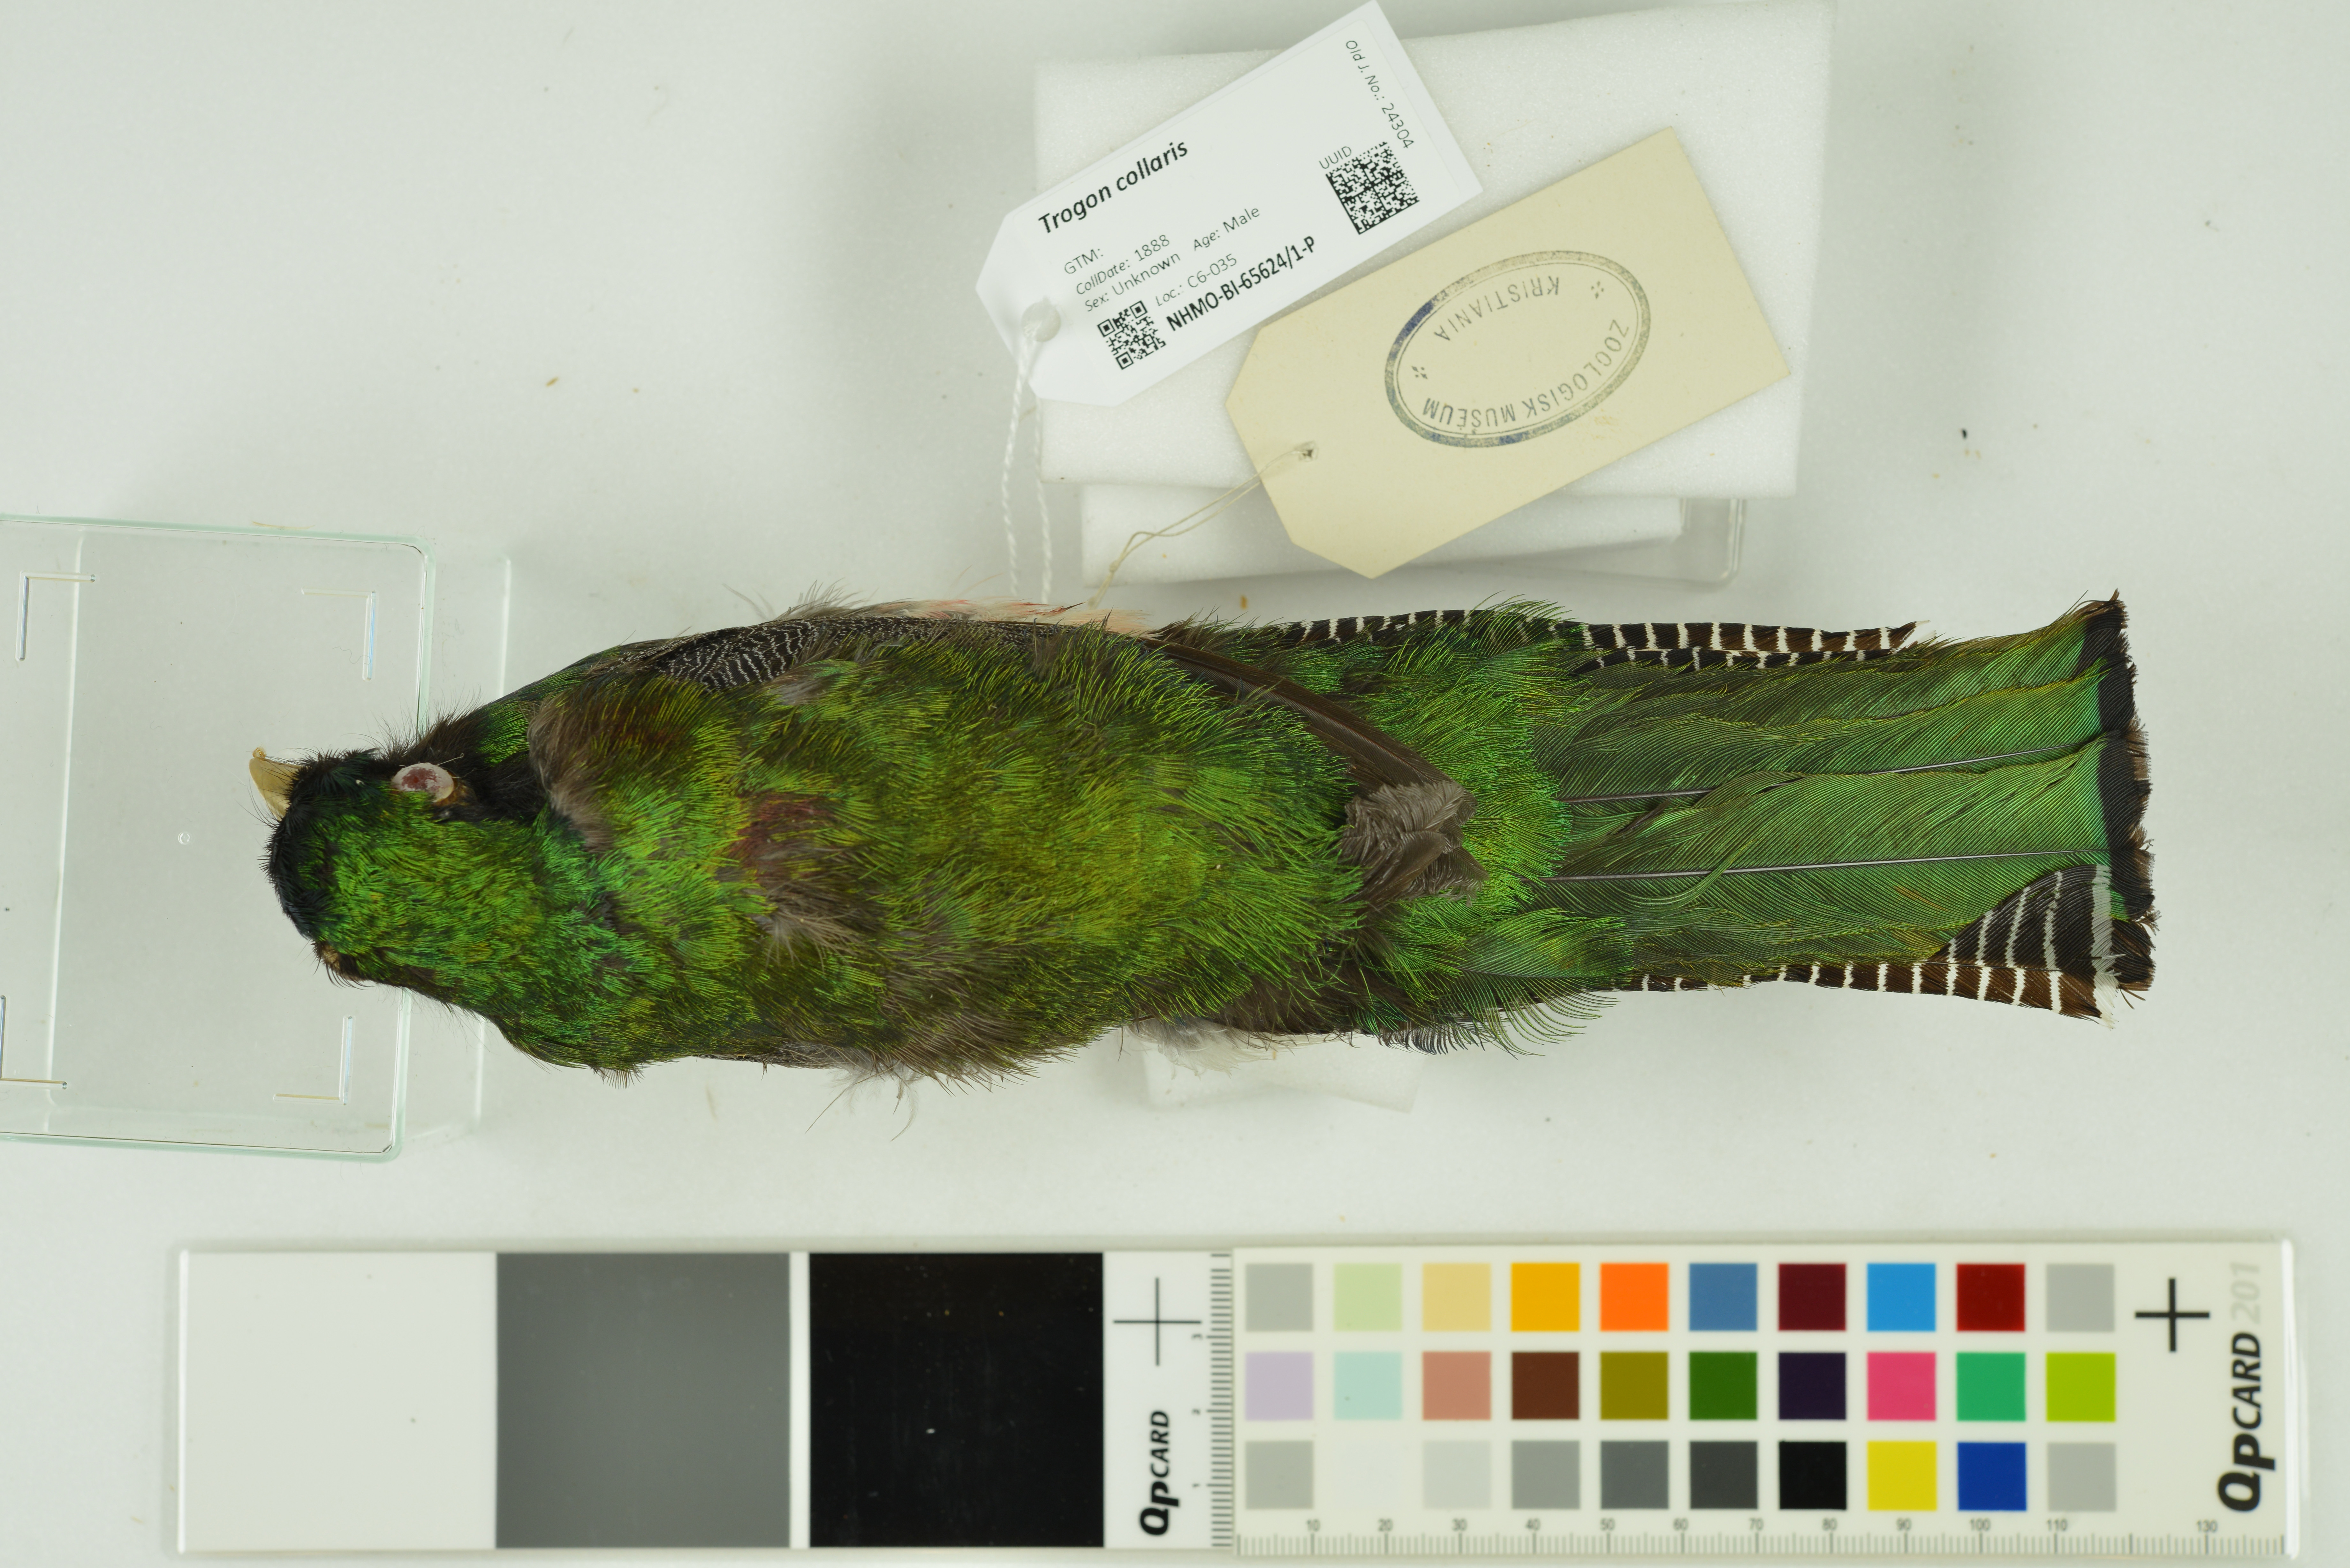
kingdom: Animalia
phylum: Chordata
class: Aves
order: Trogoniformes
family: Trogonidae
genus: Trogon
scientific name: Trogon collaris
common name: Collared trogon
